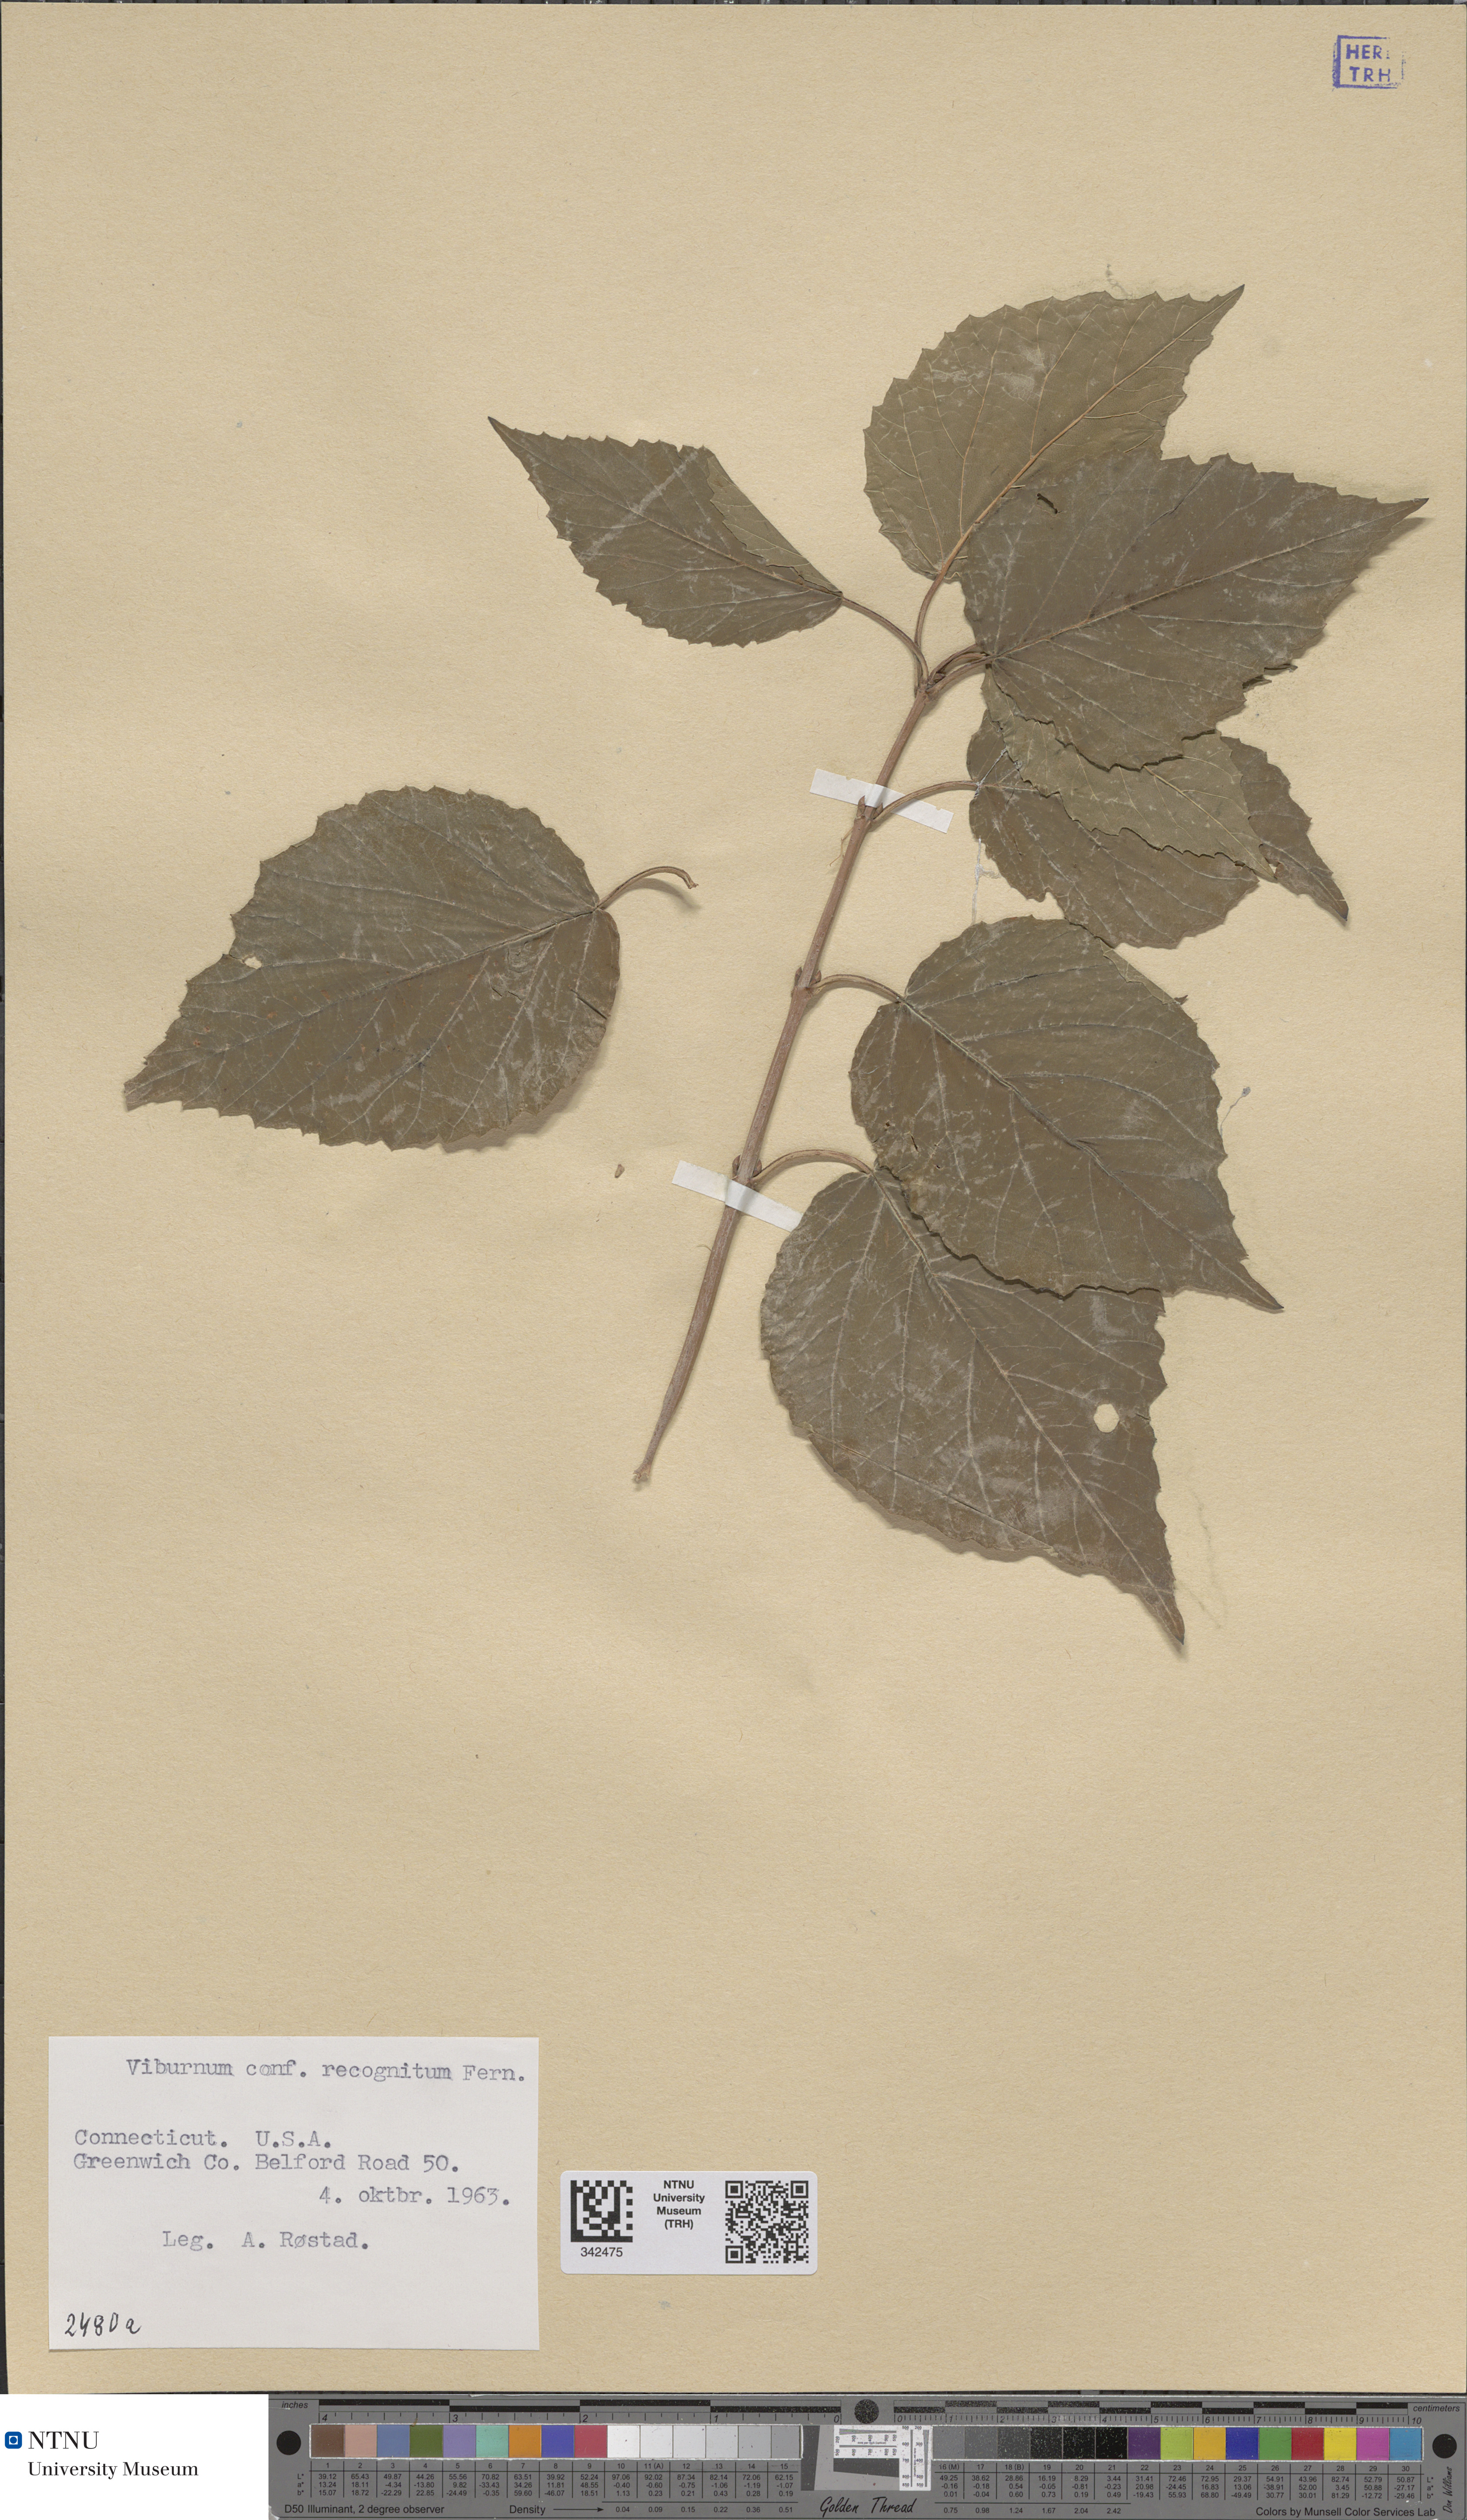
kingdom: Plantae
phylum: Tracheophyta
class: Magnoliopsida
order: Dipsacales
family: Viburnaceae
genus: Viburnum
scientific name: Viburnum recognitum
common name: Northern arrow-wood
